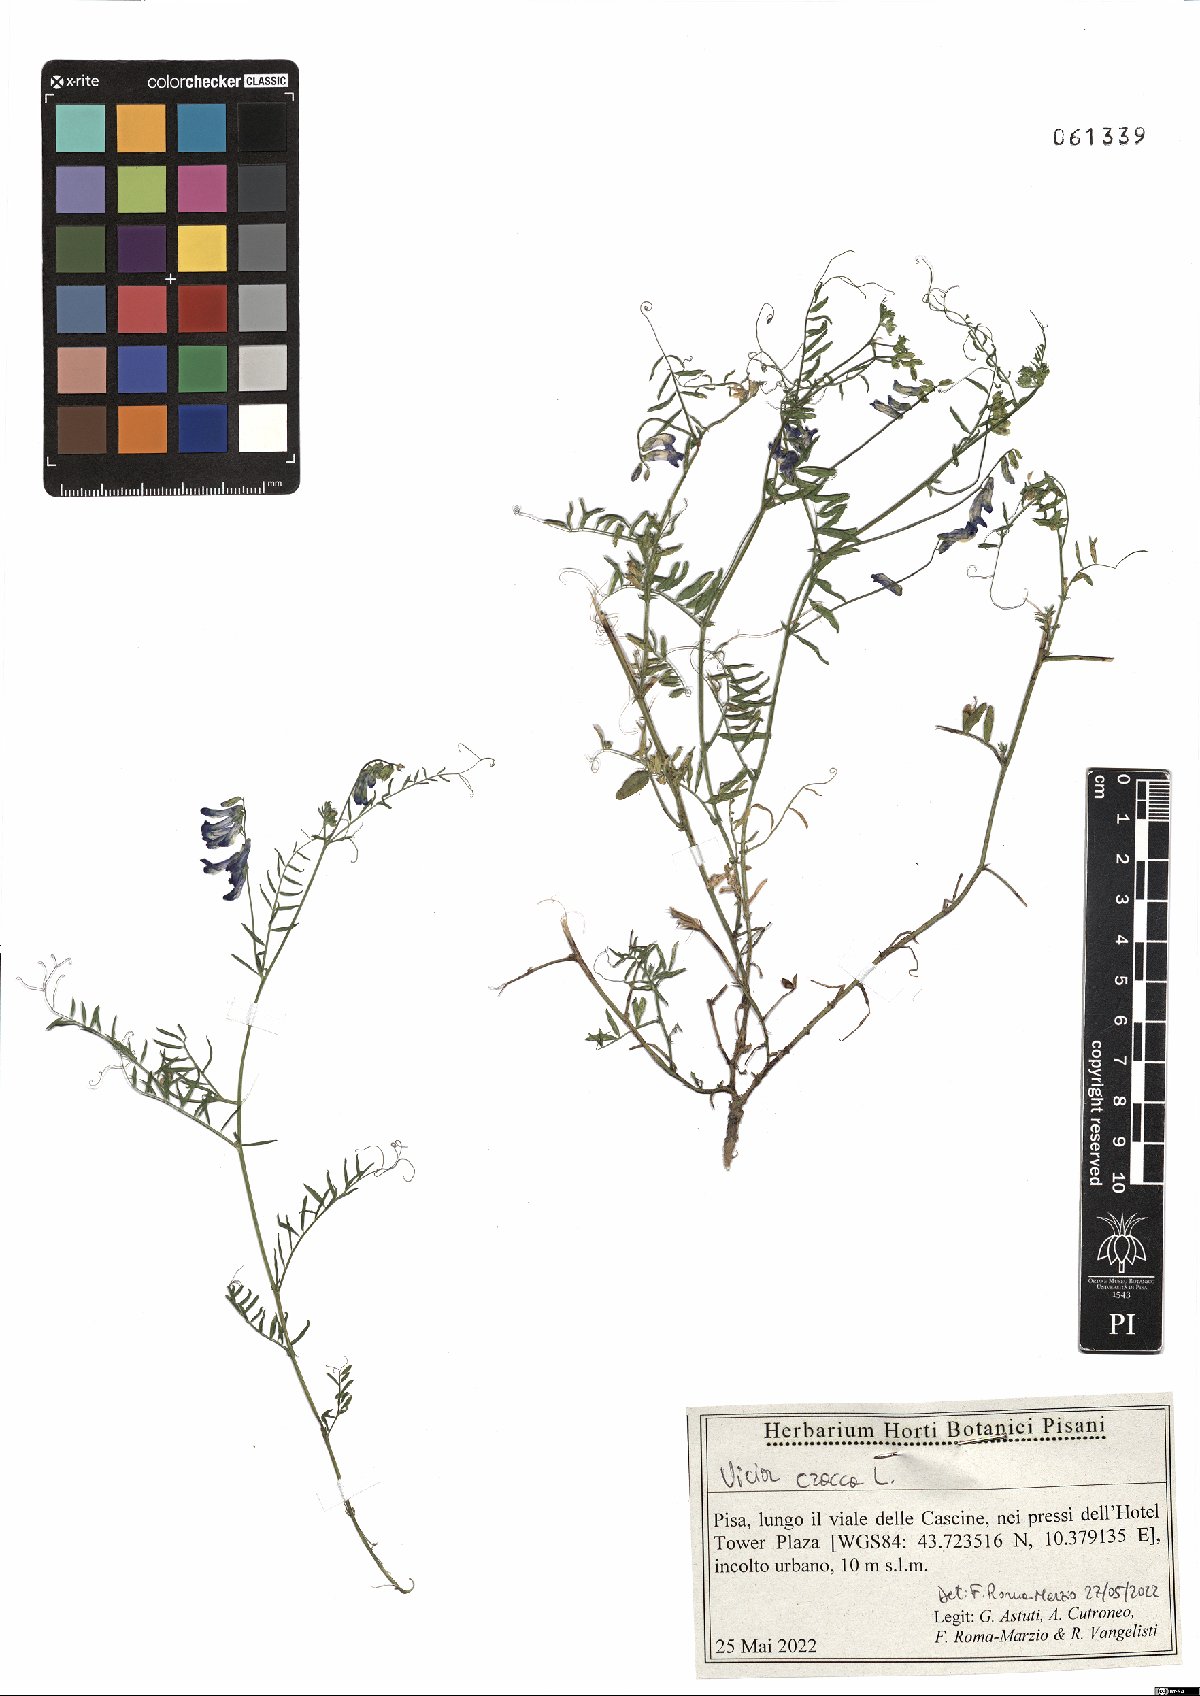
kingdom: Plantae
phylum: Tracheophyta
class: Magnoliopsida
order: Fabales
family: Fabaceae
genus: Vicia
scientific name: Vicia cracca
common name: Bird vetch
